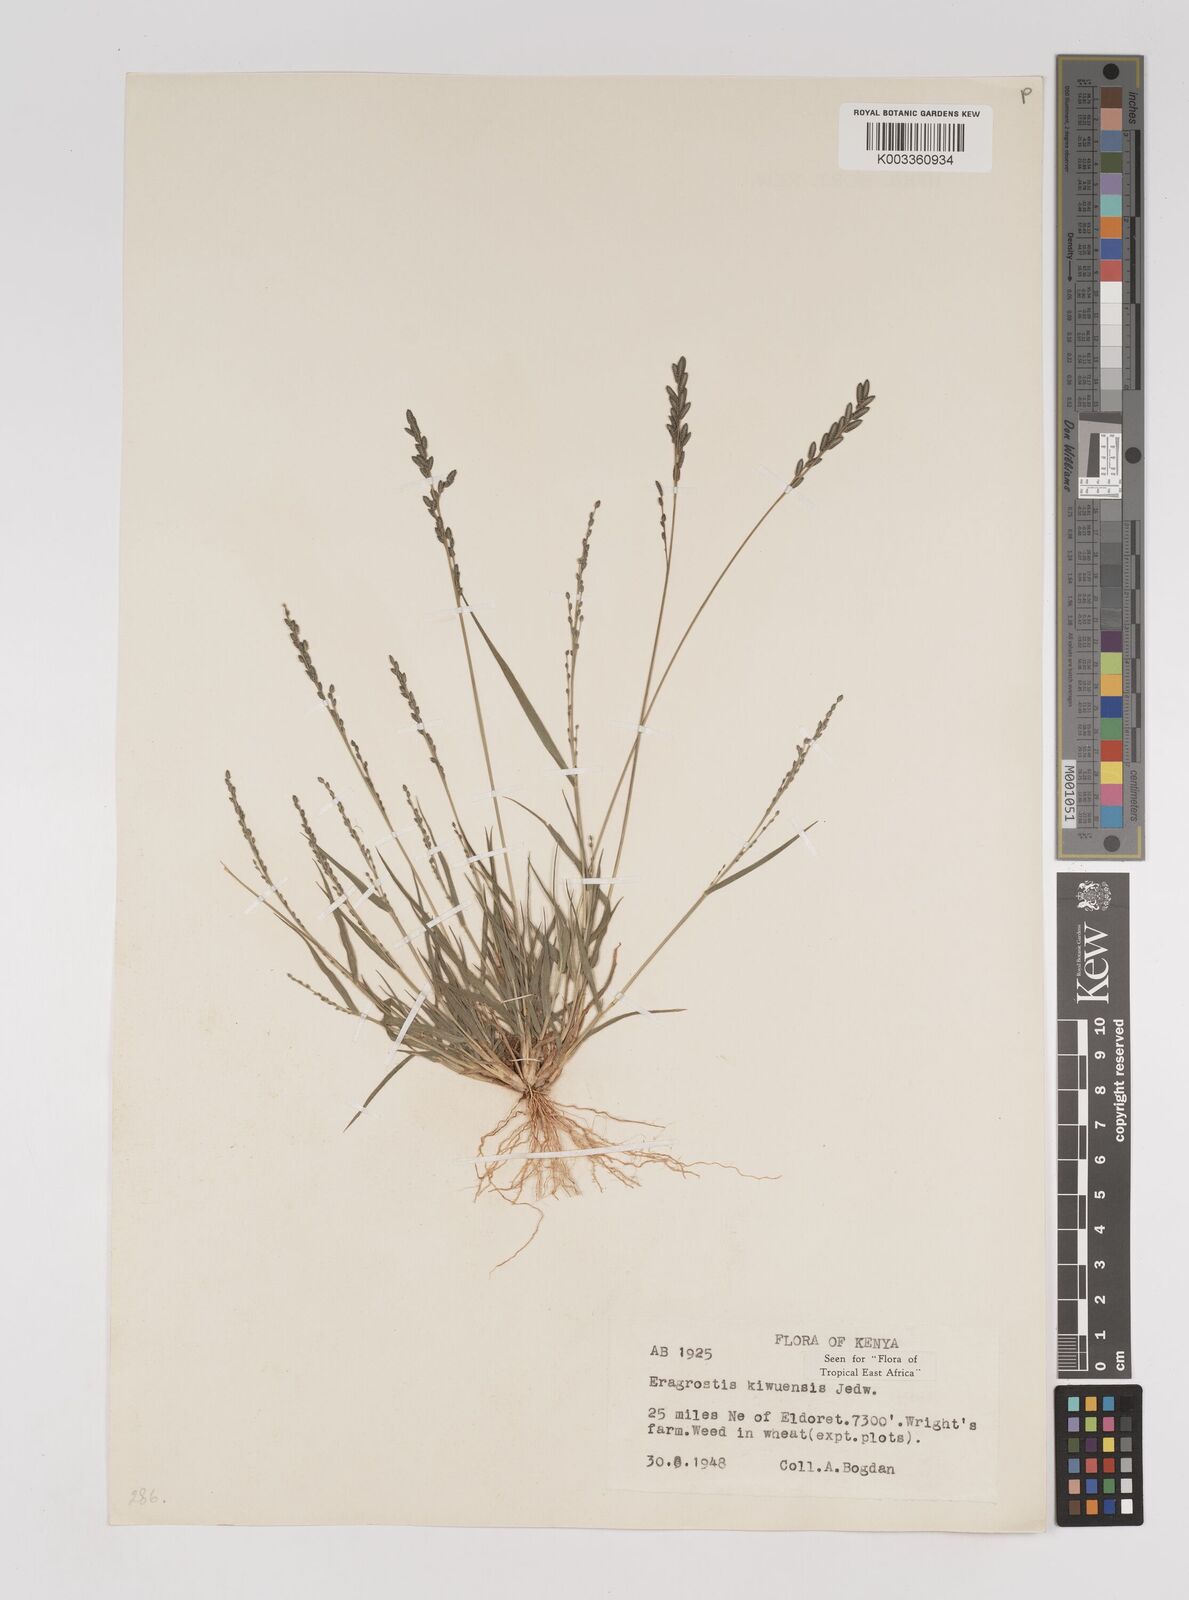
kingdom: Plantae
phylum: Tracheophyta
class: Liliopsida
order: Poales
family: Poaceae
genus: Eragrostis
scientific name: Eragrostis schweinfurthii
